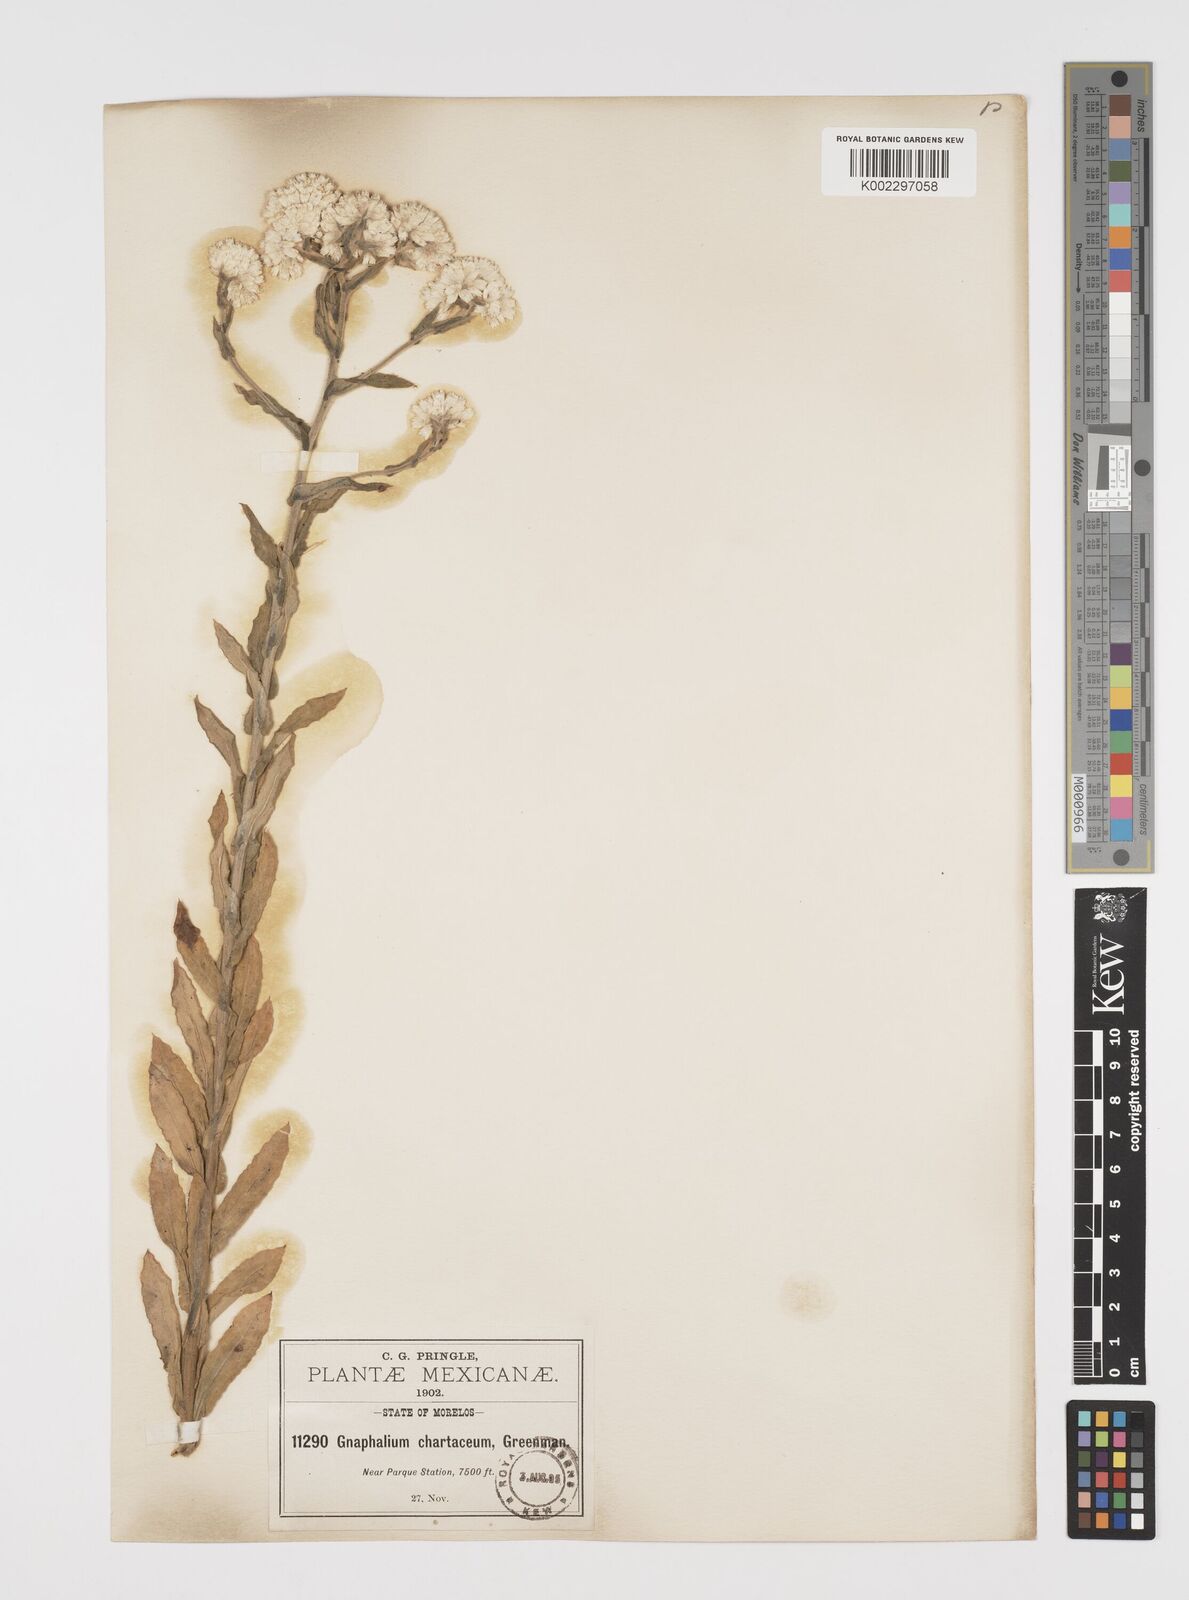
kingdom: Plantae
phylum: Tracheophyta
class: Magnoliopsida
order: Asterales
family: Asteraceae
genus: Pseudognaphalium
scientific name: Pseudognaphalium chartaceum
